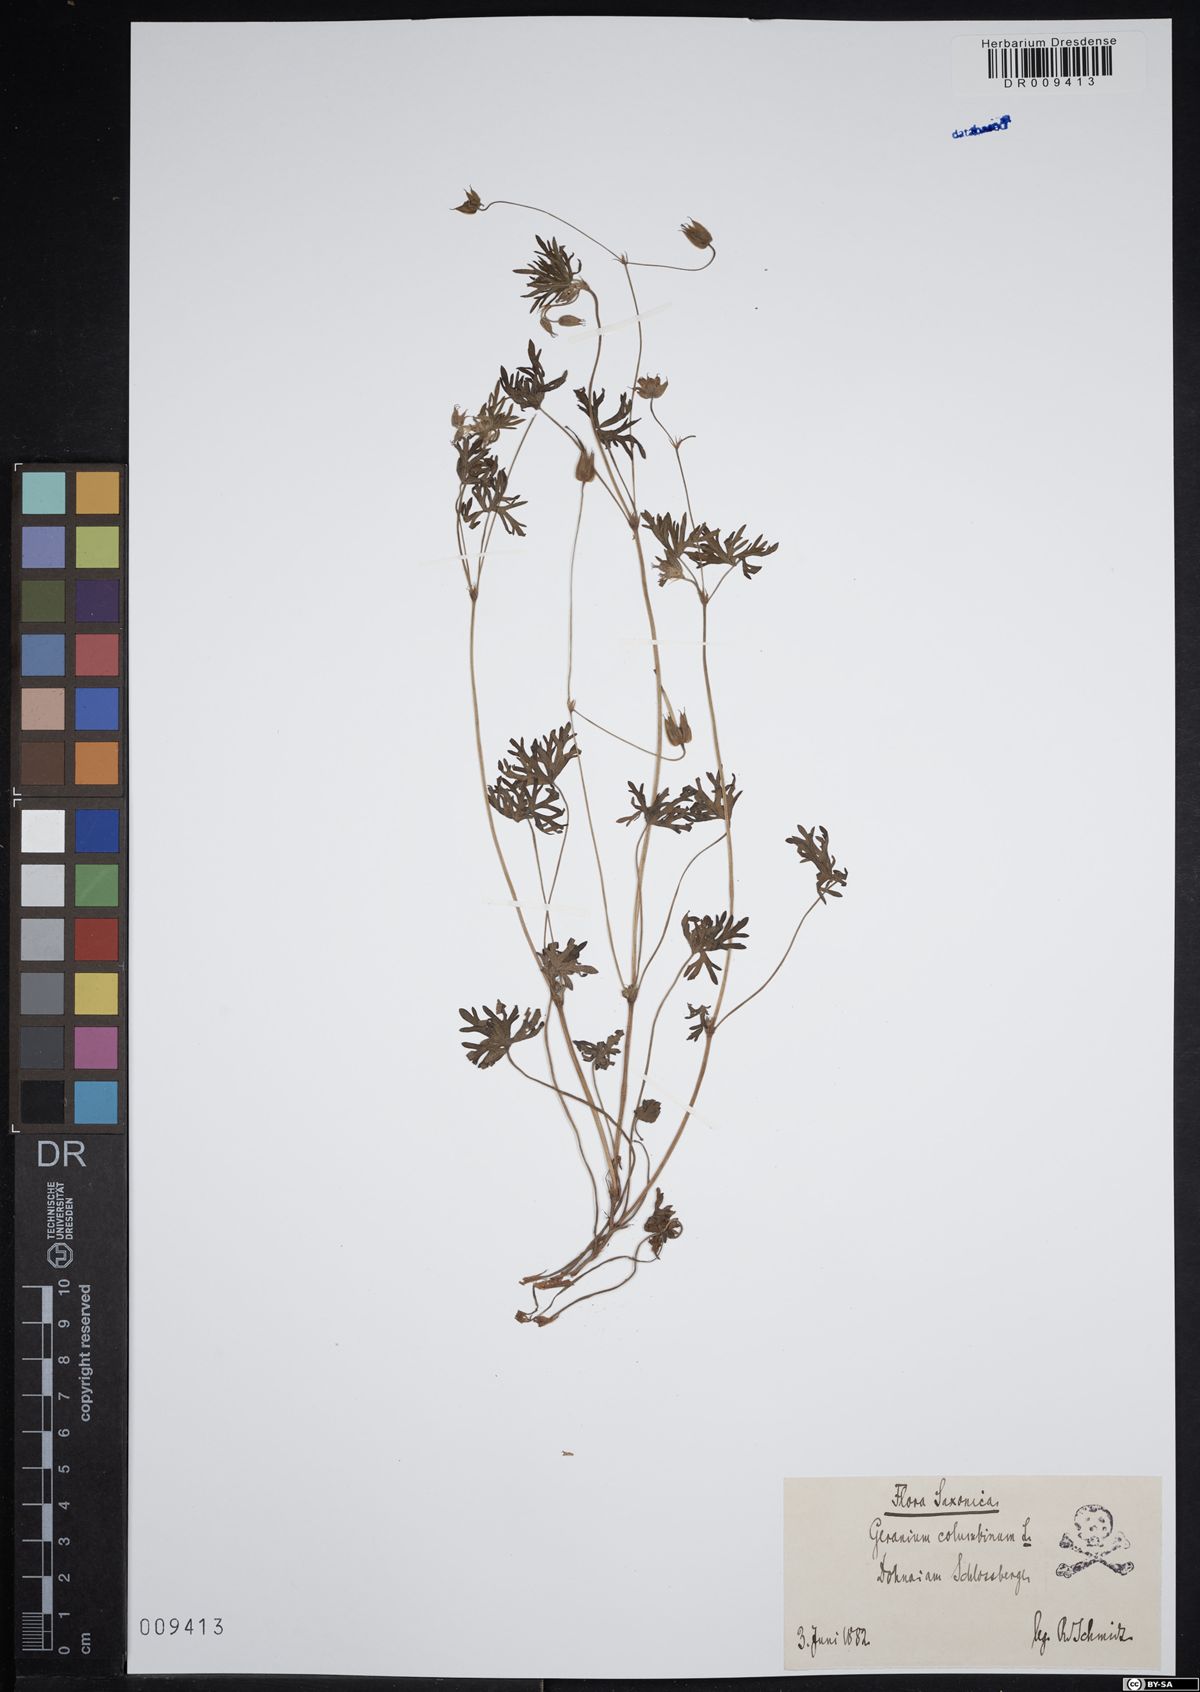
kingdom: Plantae
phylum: Tracheophyta
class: Magnoliopsida
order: Geraniales
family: Geraniaceae
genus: Geranium
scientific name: Geranium columbinum
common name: Long-stalked crane's-bill
